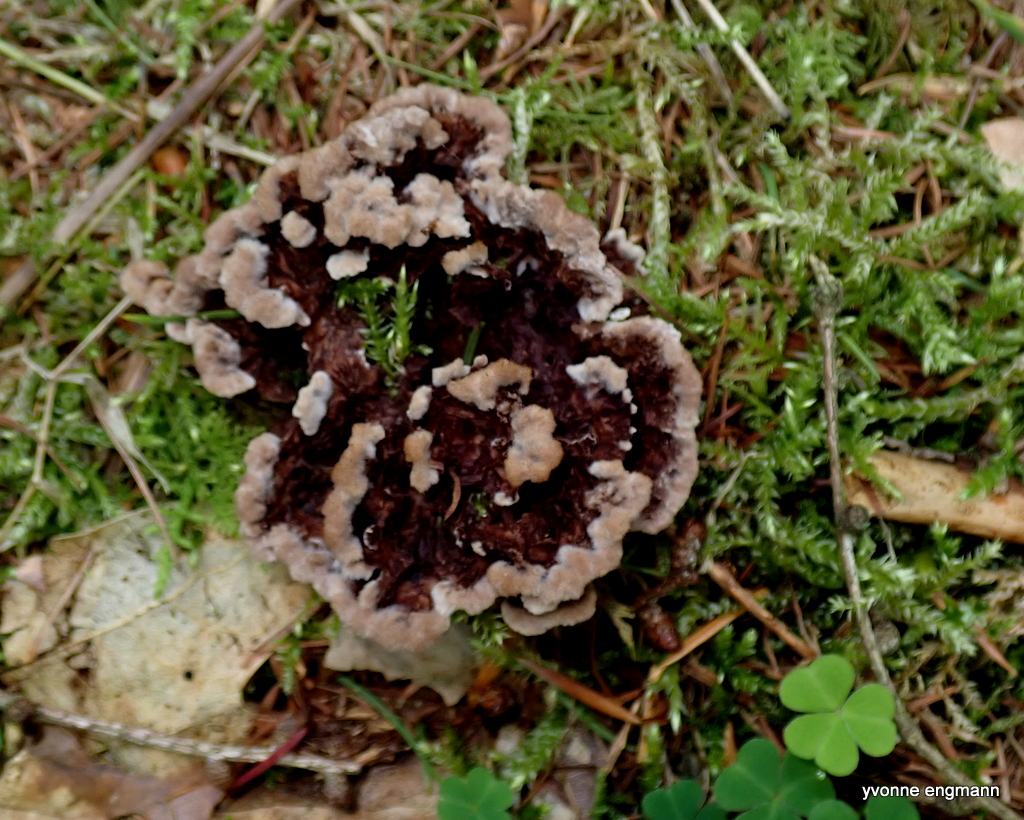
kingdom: Fungi
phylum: Basidiomycota
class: Agaricomycetes
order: Thelephorales
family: Thelephoraceae
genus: Thelephora
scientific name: Thelephora terrestris
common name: fliget frynsesvamp
